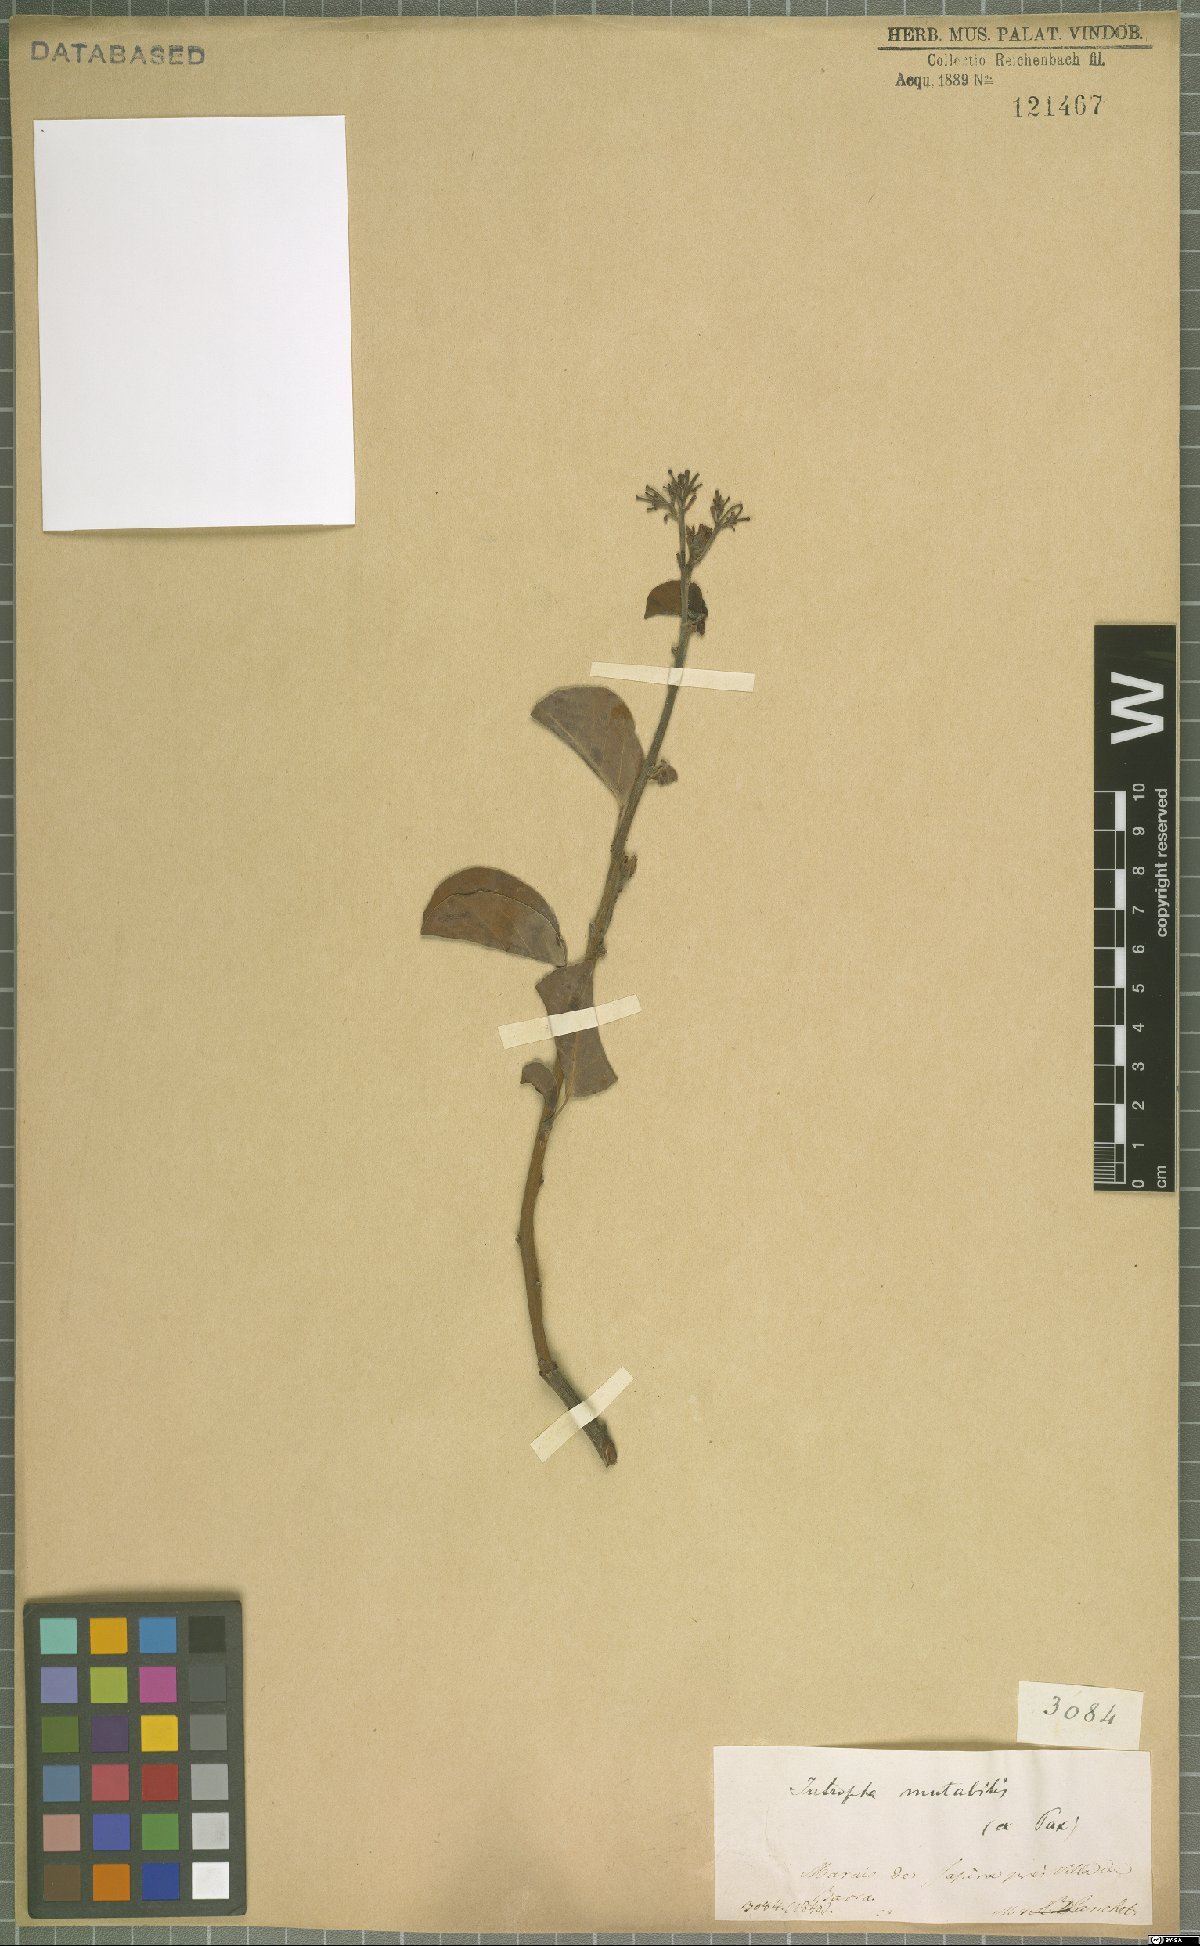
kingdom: Plantae
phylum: Tracheophyta
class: Magnoliopsida
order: Malpighiales
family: Euphorbiaceae
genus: Jatropha
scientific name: Jatropha mutabilis
